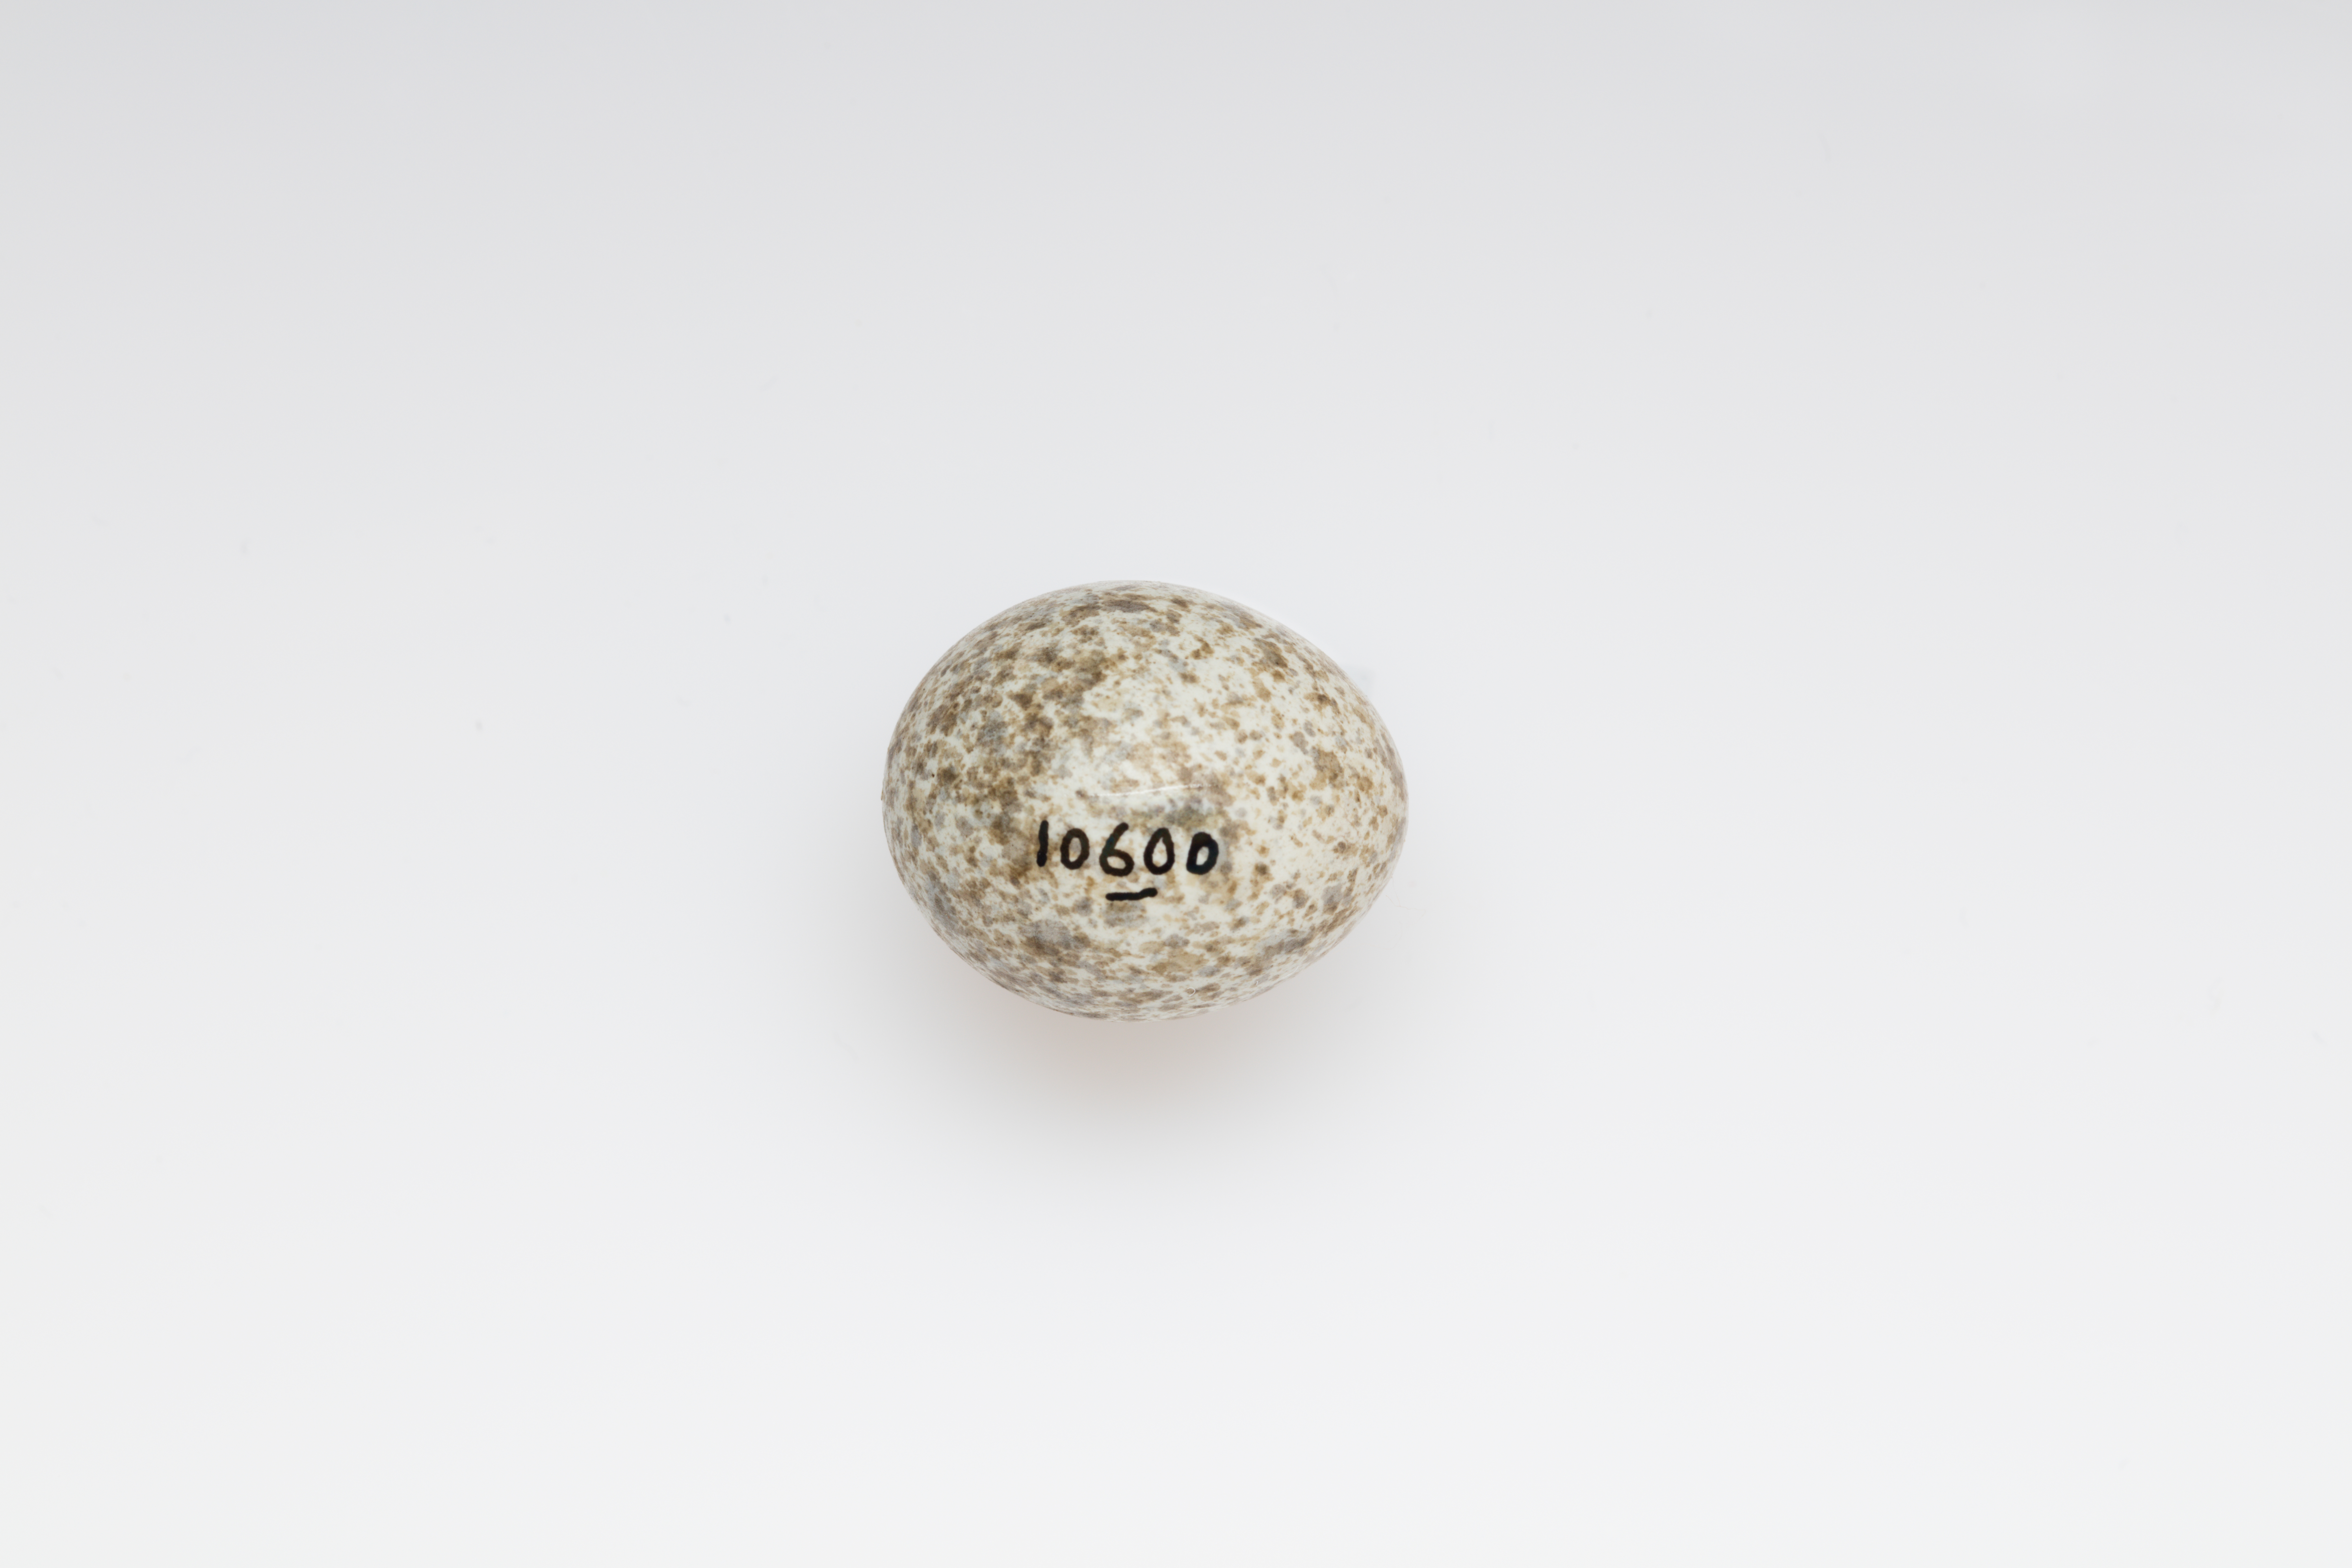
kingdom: Animalia
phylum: Chordata
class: Aves
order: Passeriformes
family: Alaudidae
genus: Alauda
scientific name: Alauda arvensis
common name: Eurasian skylark
